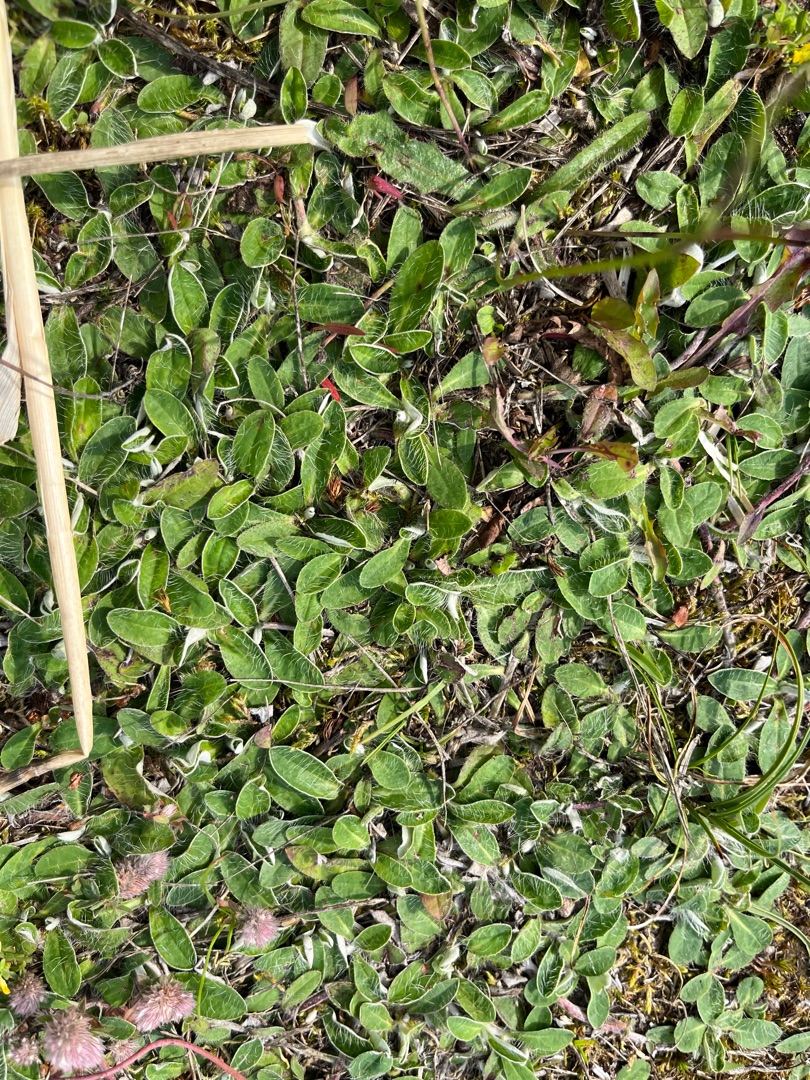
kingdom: Plantae
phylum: Tracheophyta
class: Magnoliopsida
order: Asterales
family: Asteraceae
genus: Pilosella
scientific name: Pilosella officinarum
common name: Håret høgeurt
